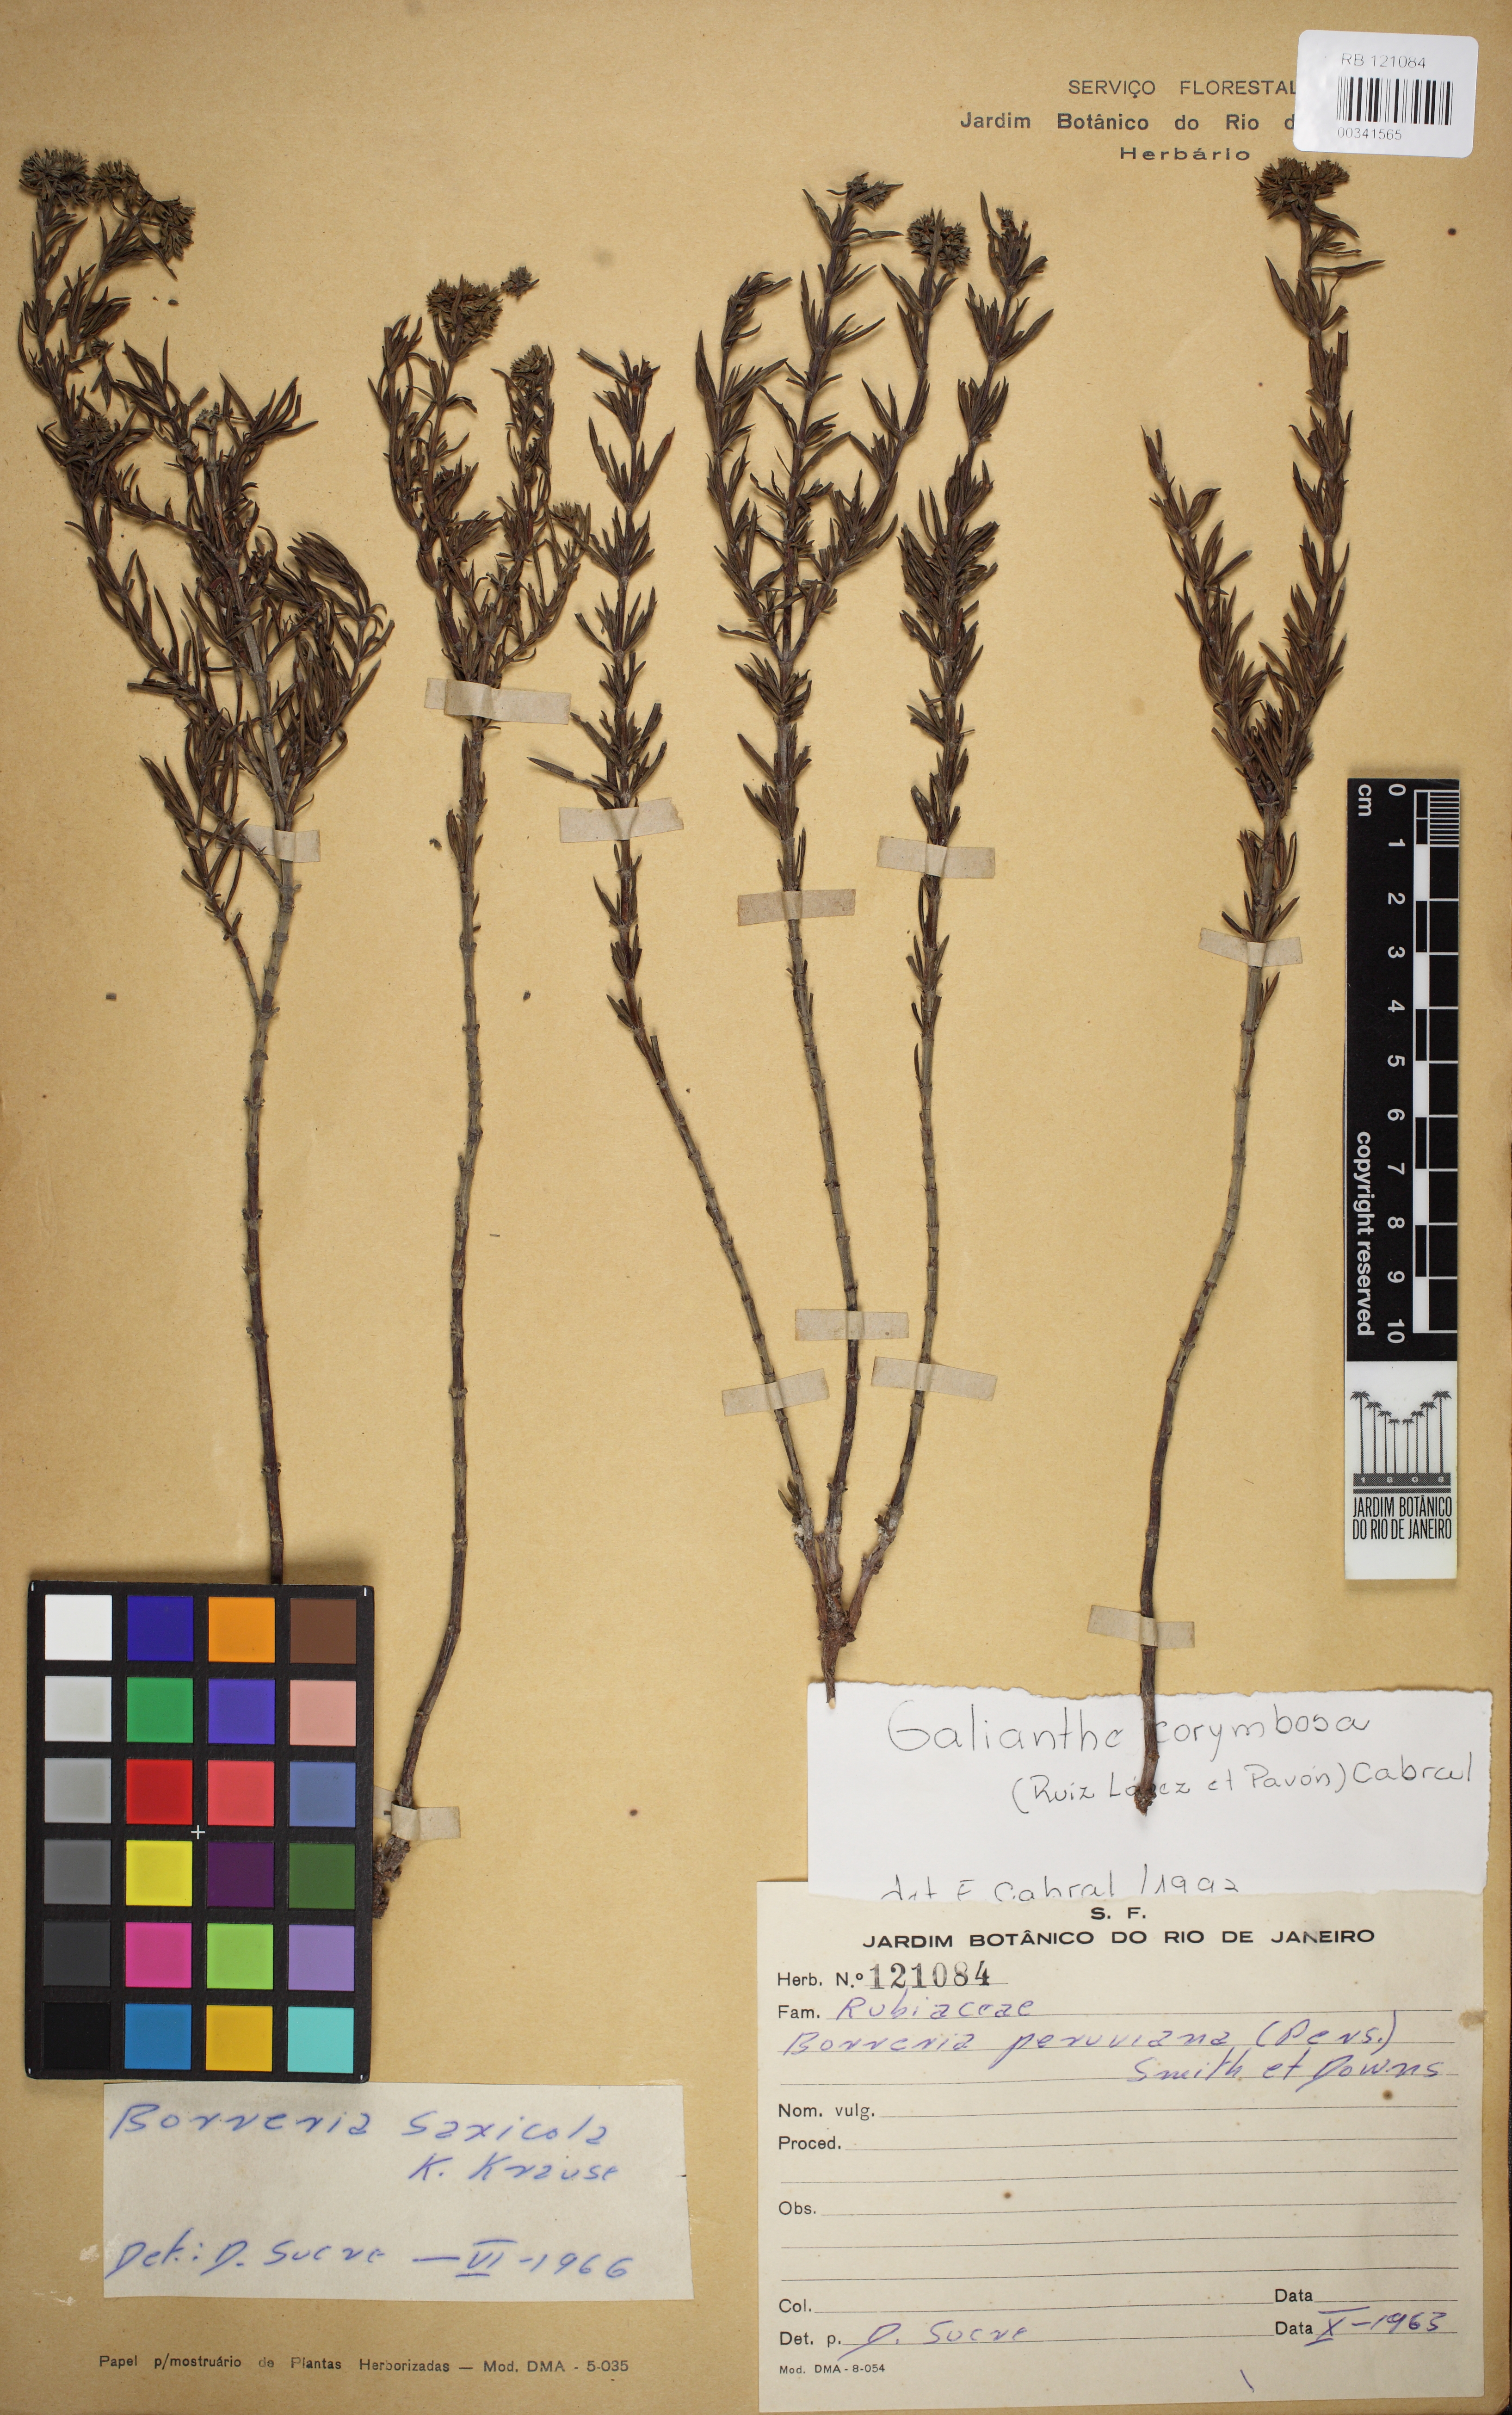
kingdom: Plantae
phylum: Tracheophyta
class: Magnoliopsida
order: Gentianales
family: Rubiaceae
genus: Galianthe
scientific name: Galianthe peruviana
